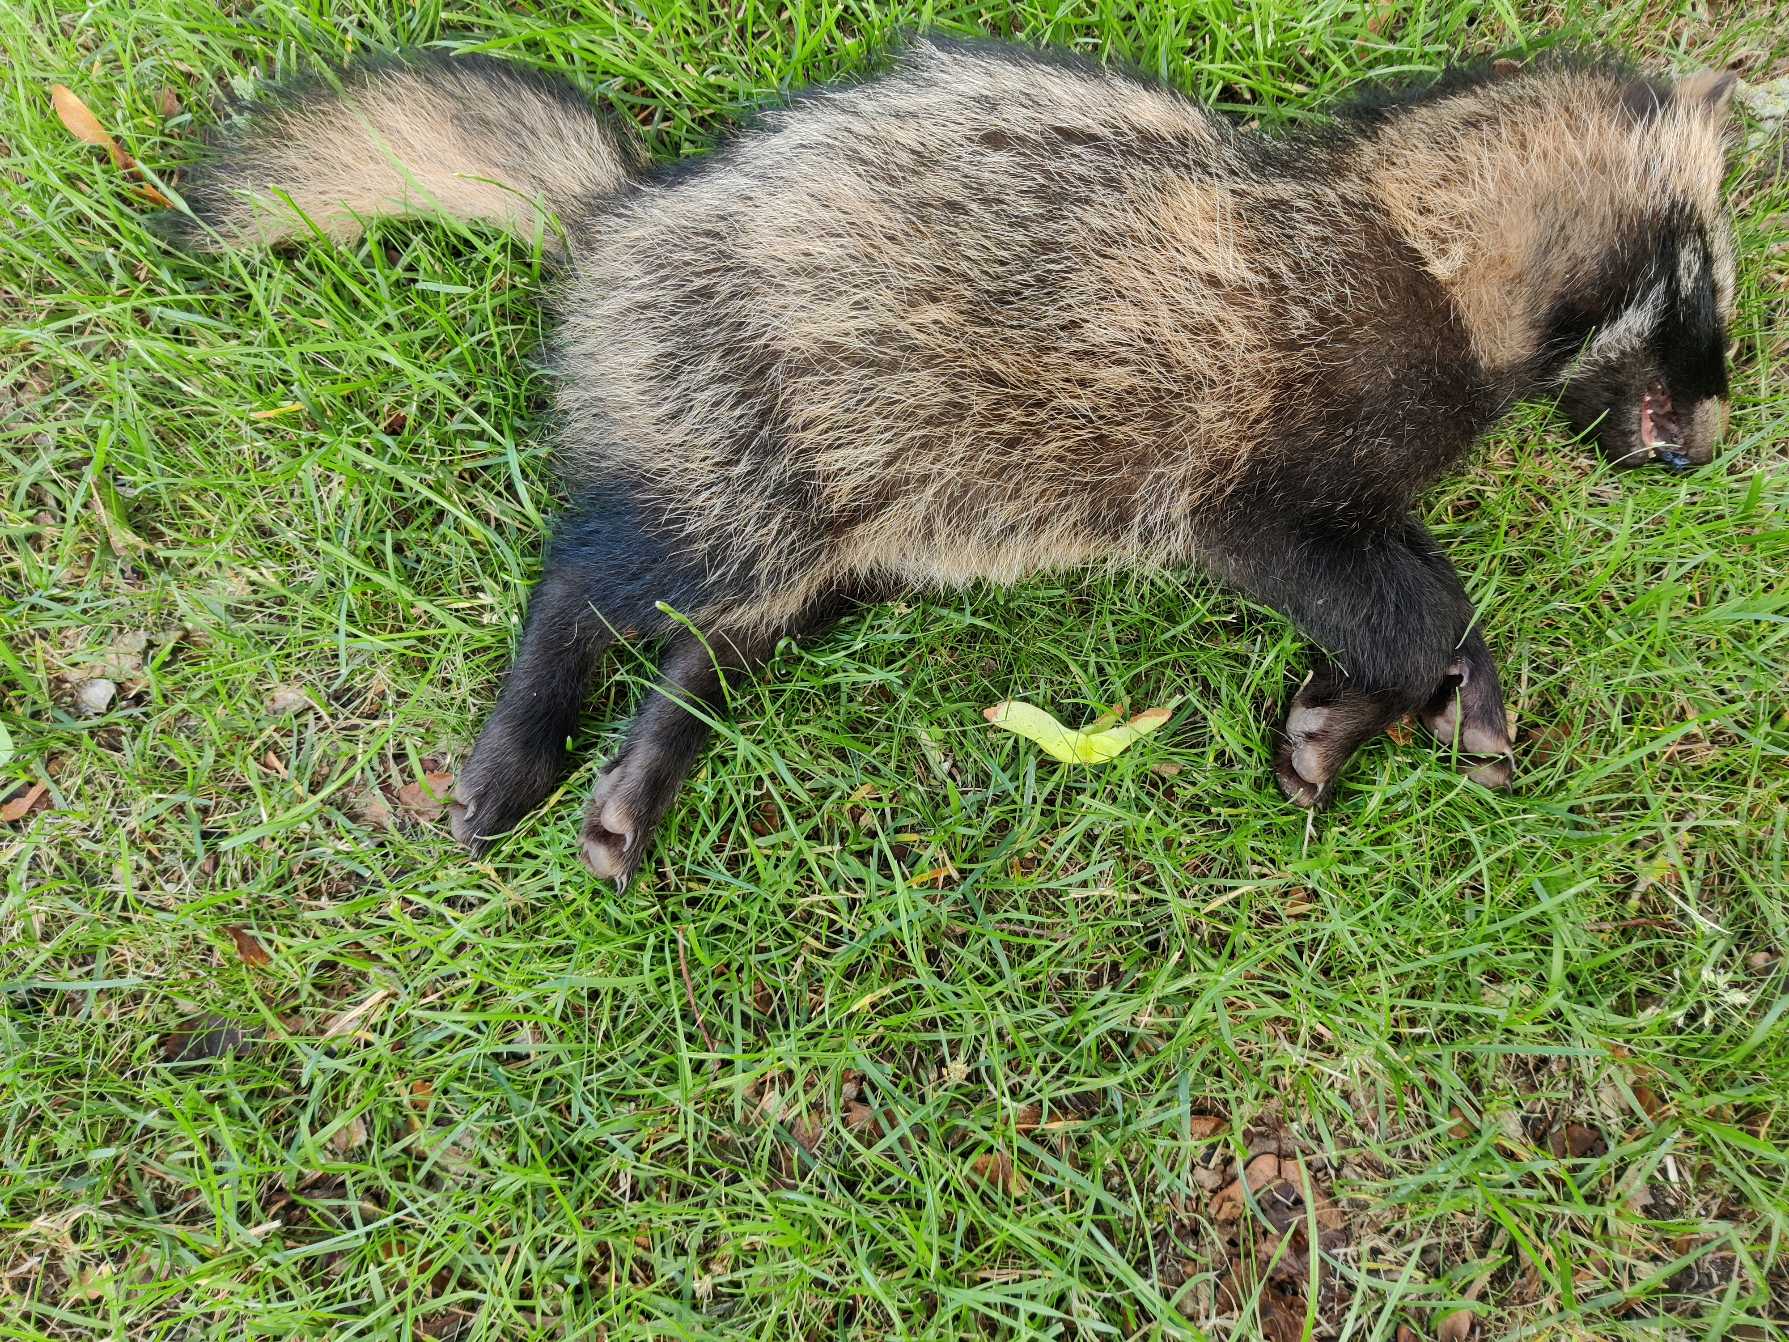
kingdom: Animalia
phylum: Chordata
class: Mammalia
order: Carnivora
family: Canidae
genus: Nyctereutes
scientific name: Nyctereutes procyonoides
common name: Mårhund
